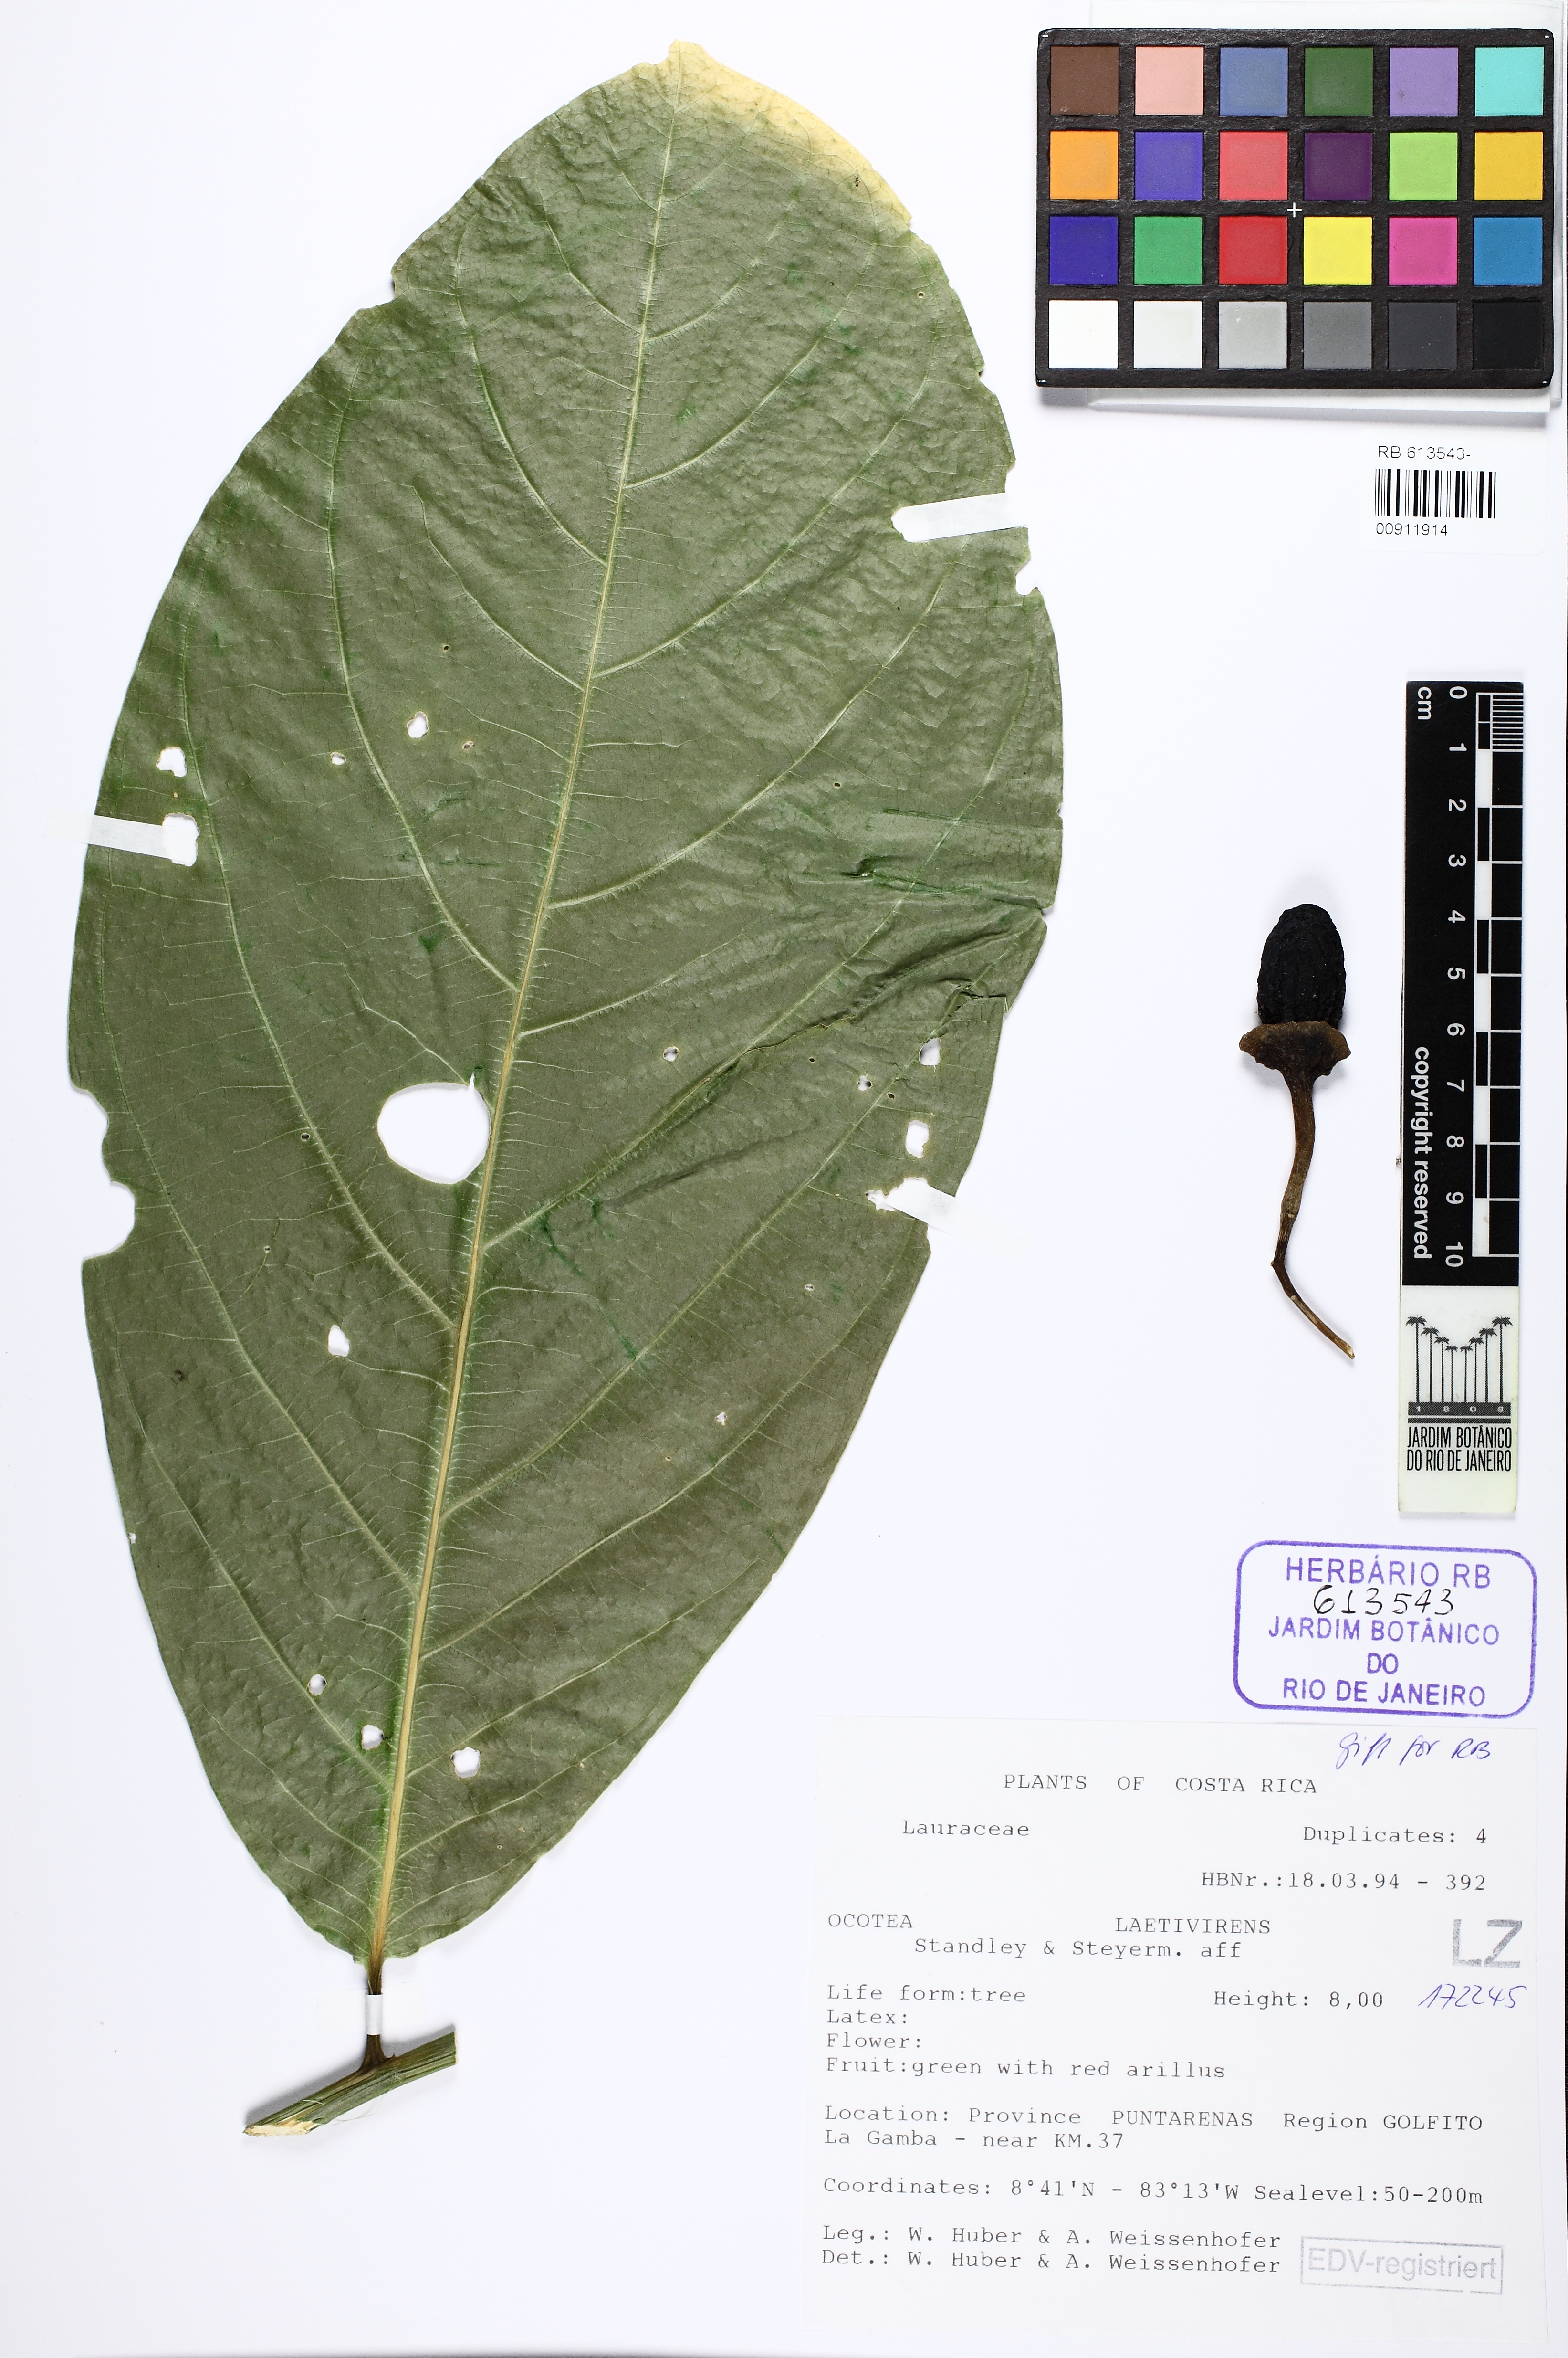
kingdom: Plantae
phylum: Tracheophyta
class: Magnoliopsida
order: Laurales
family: Lauraceae
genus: Ocotea
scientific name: Ocotea laetevirens
